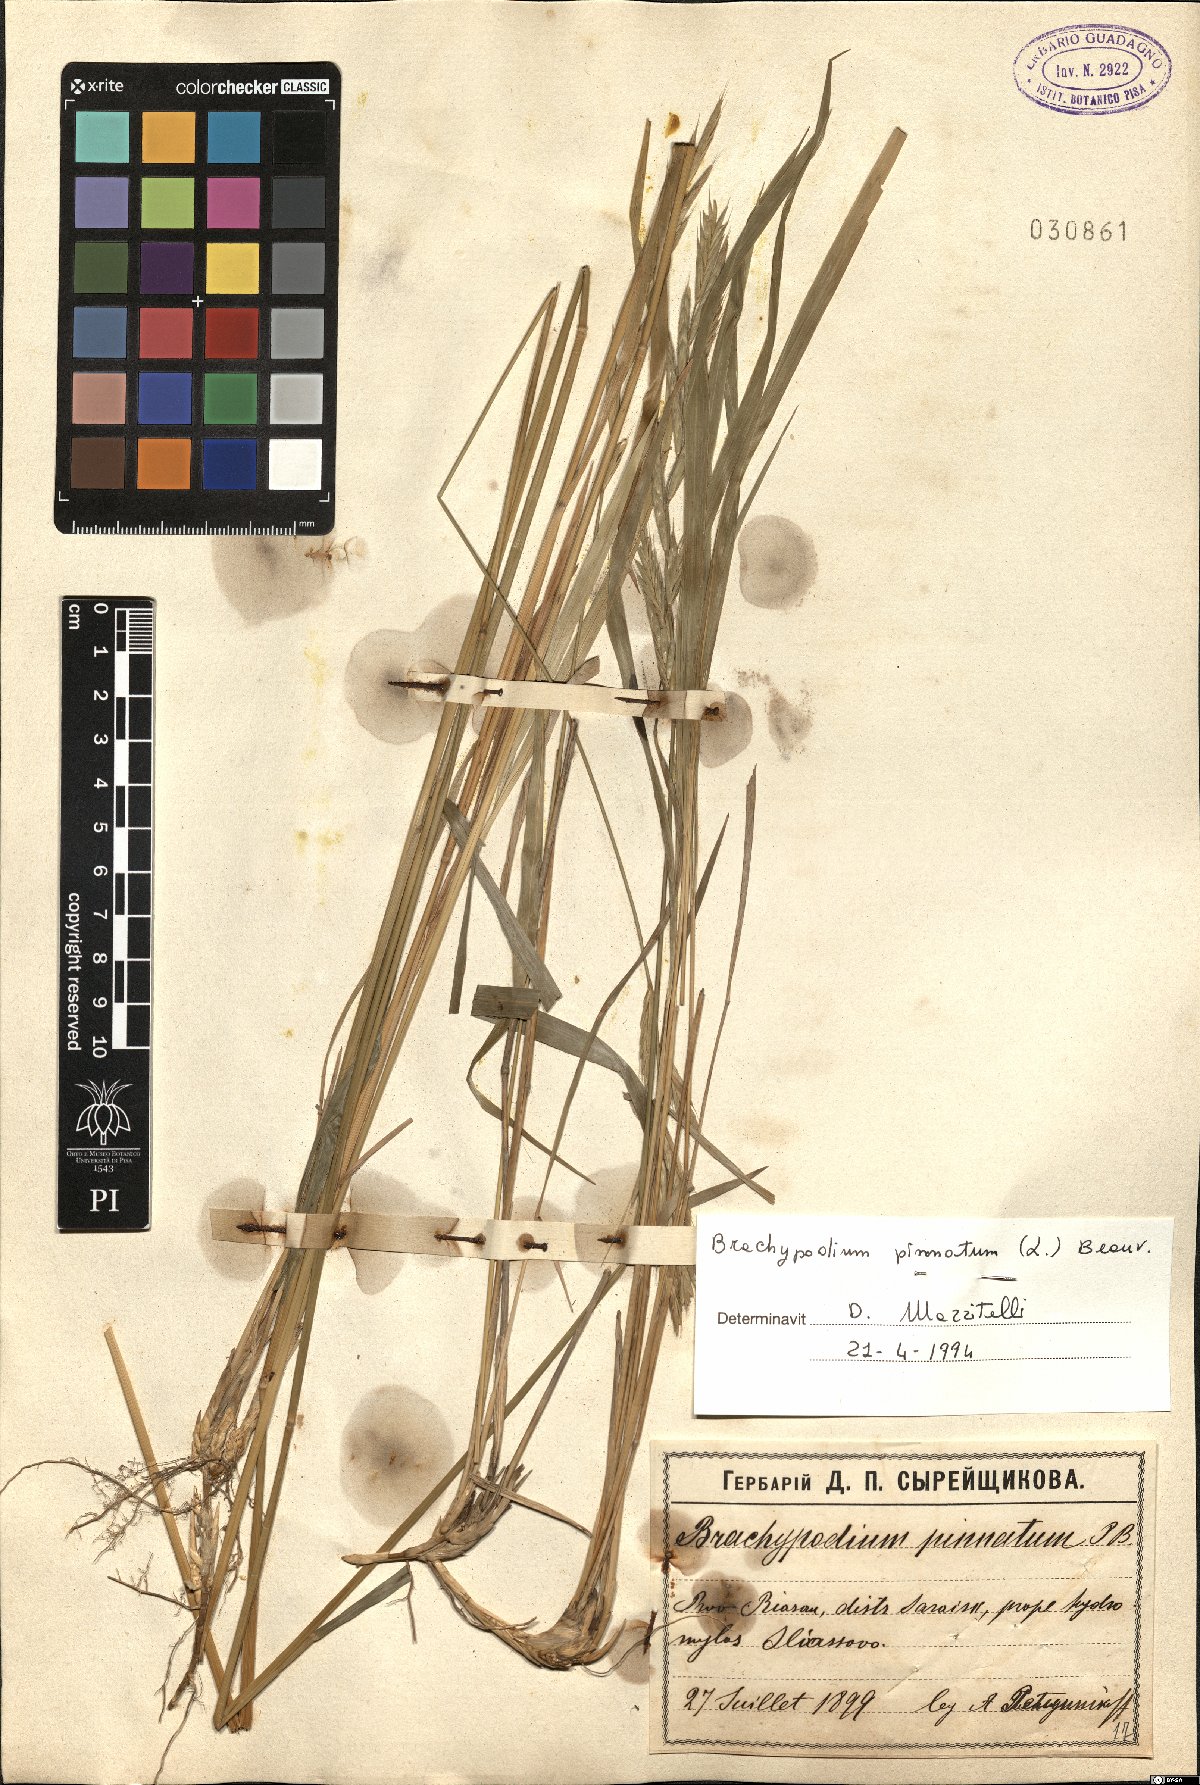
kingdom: Plantae
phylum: Tracheophyta
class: Liliopsida
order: Poales
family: Poaceae
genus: Brachypodium
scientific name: Brachypodium pinnatum
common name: Tor grass
